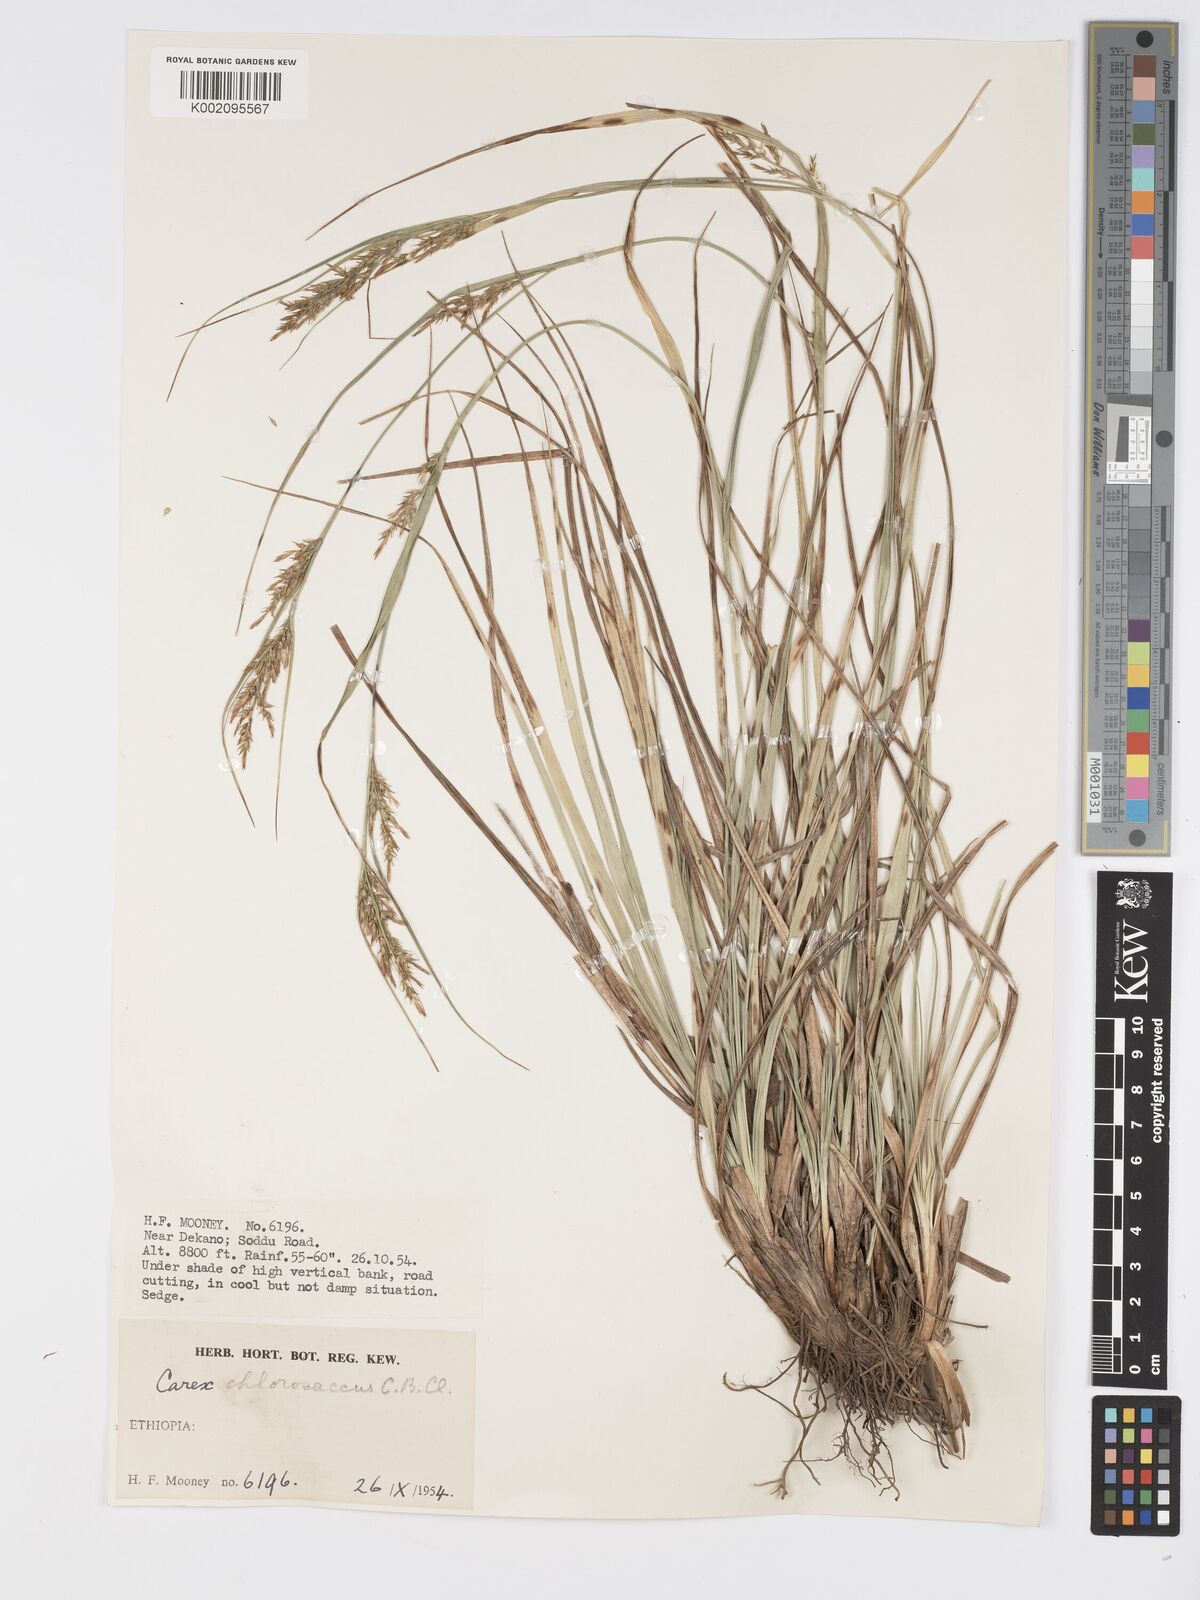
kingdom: Plantae
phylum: Tracheophyta
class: Liliopsida
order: Poales
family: Cyperaceae
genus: Carex
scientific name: Carex chlorosaccus
